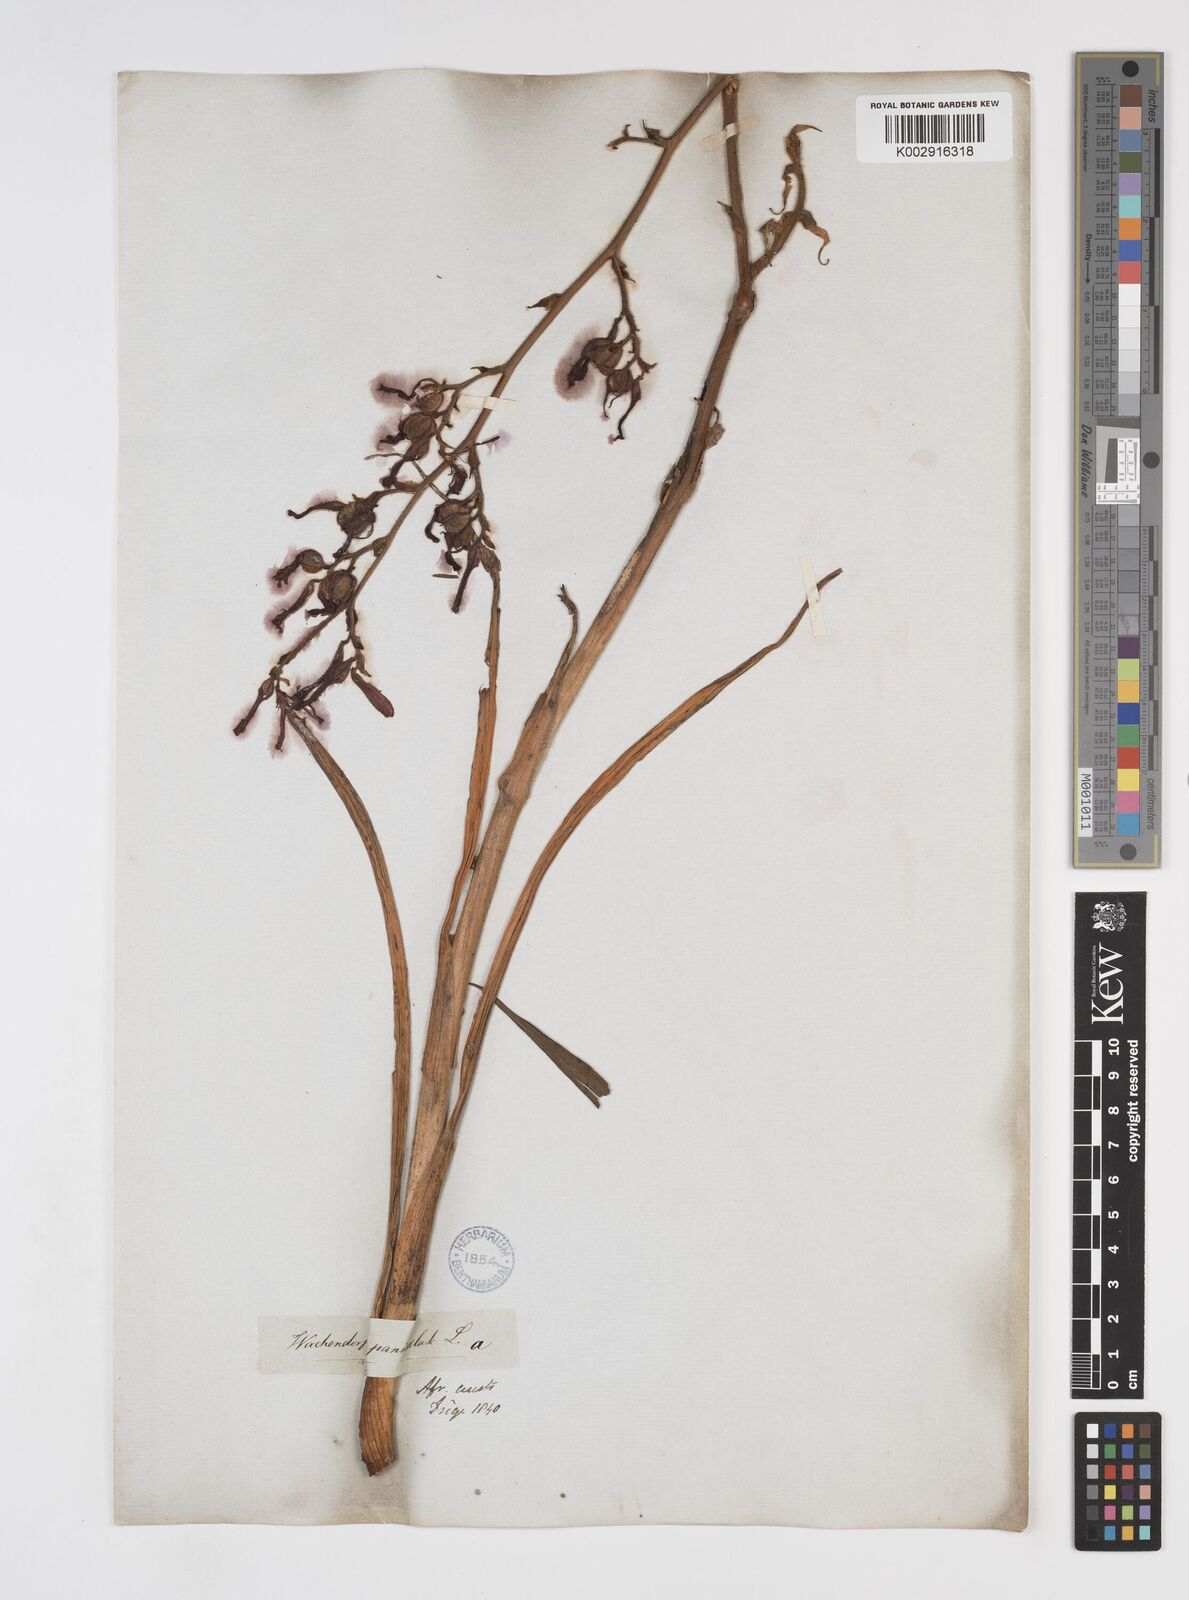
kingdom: Plantae
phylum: Tracheophyta
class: Liliopsida
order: Commelinales
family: Haemodoraceae
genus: Wachendorfia
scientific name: Wachendorfia paniculata
